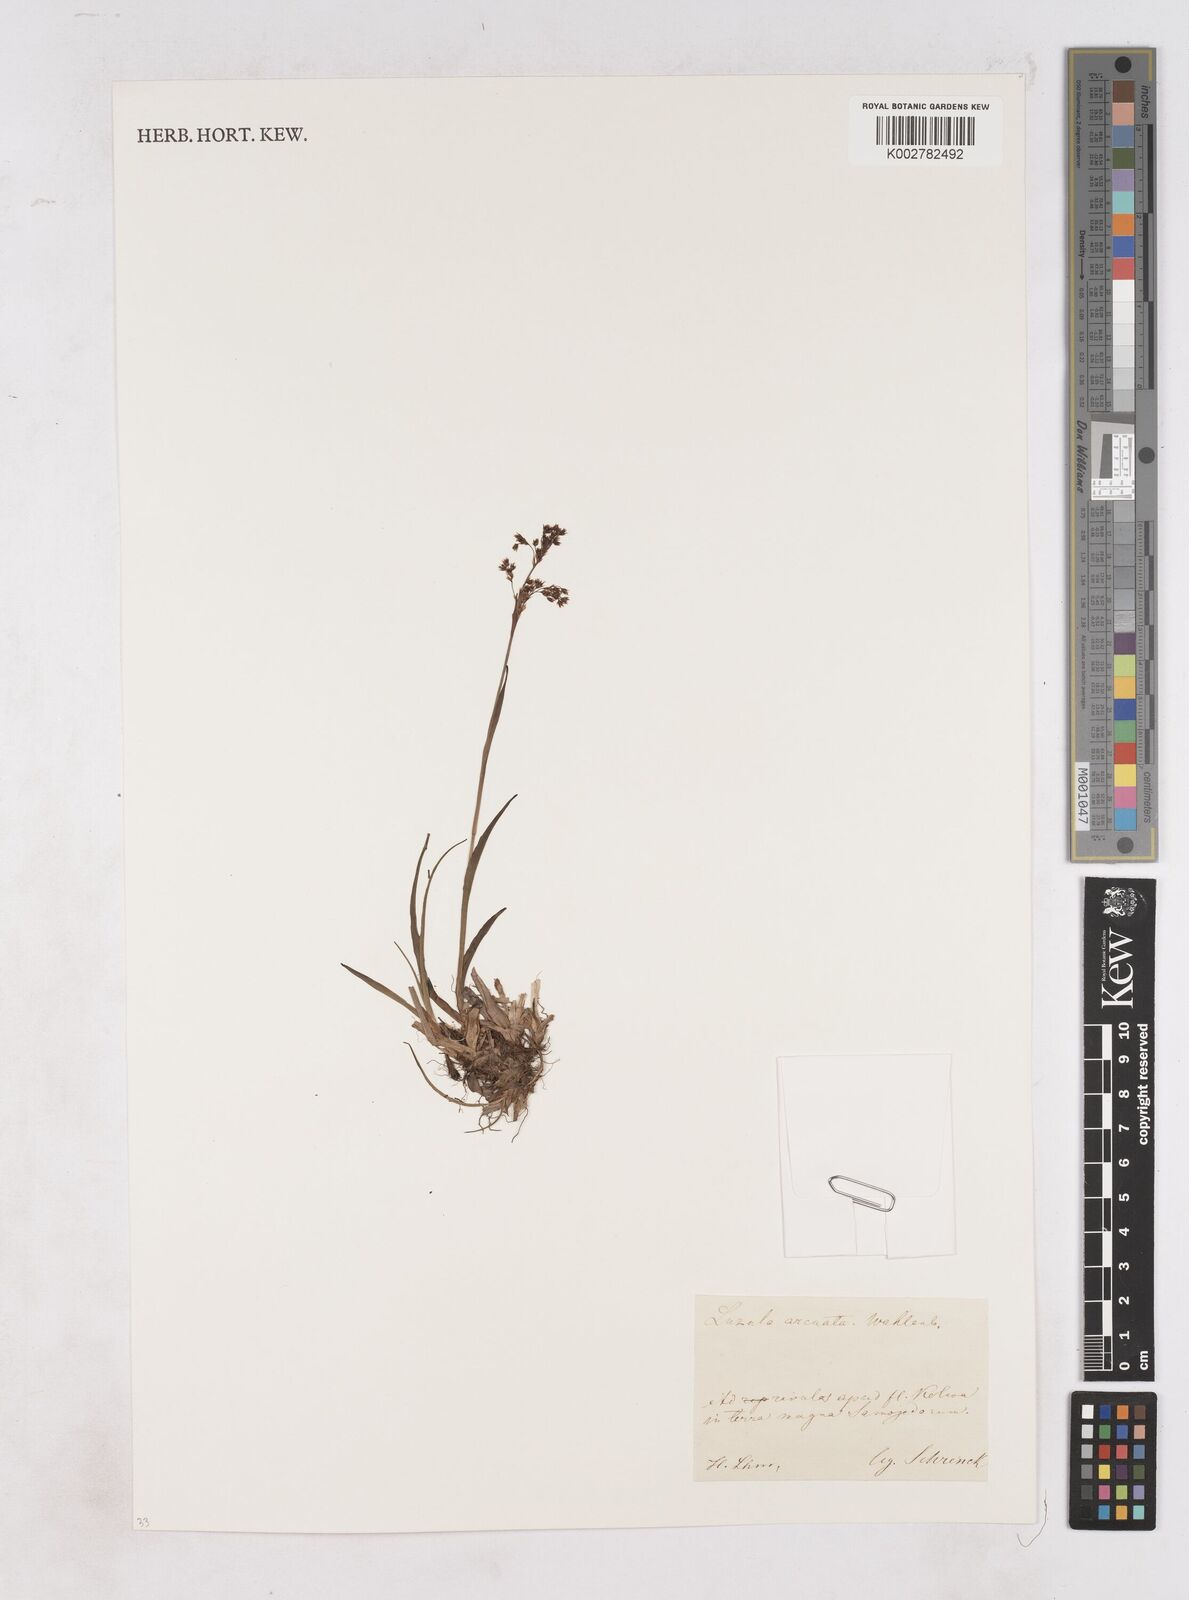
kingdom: Plantae
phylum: Tracheophyta
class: Liliopsida
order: Poales
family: Juncaceae
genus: Luzula
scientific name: Luzula arcuata
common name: Curved wood-rush
